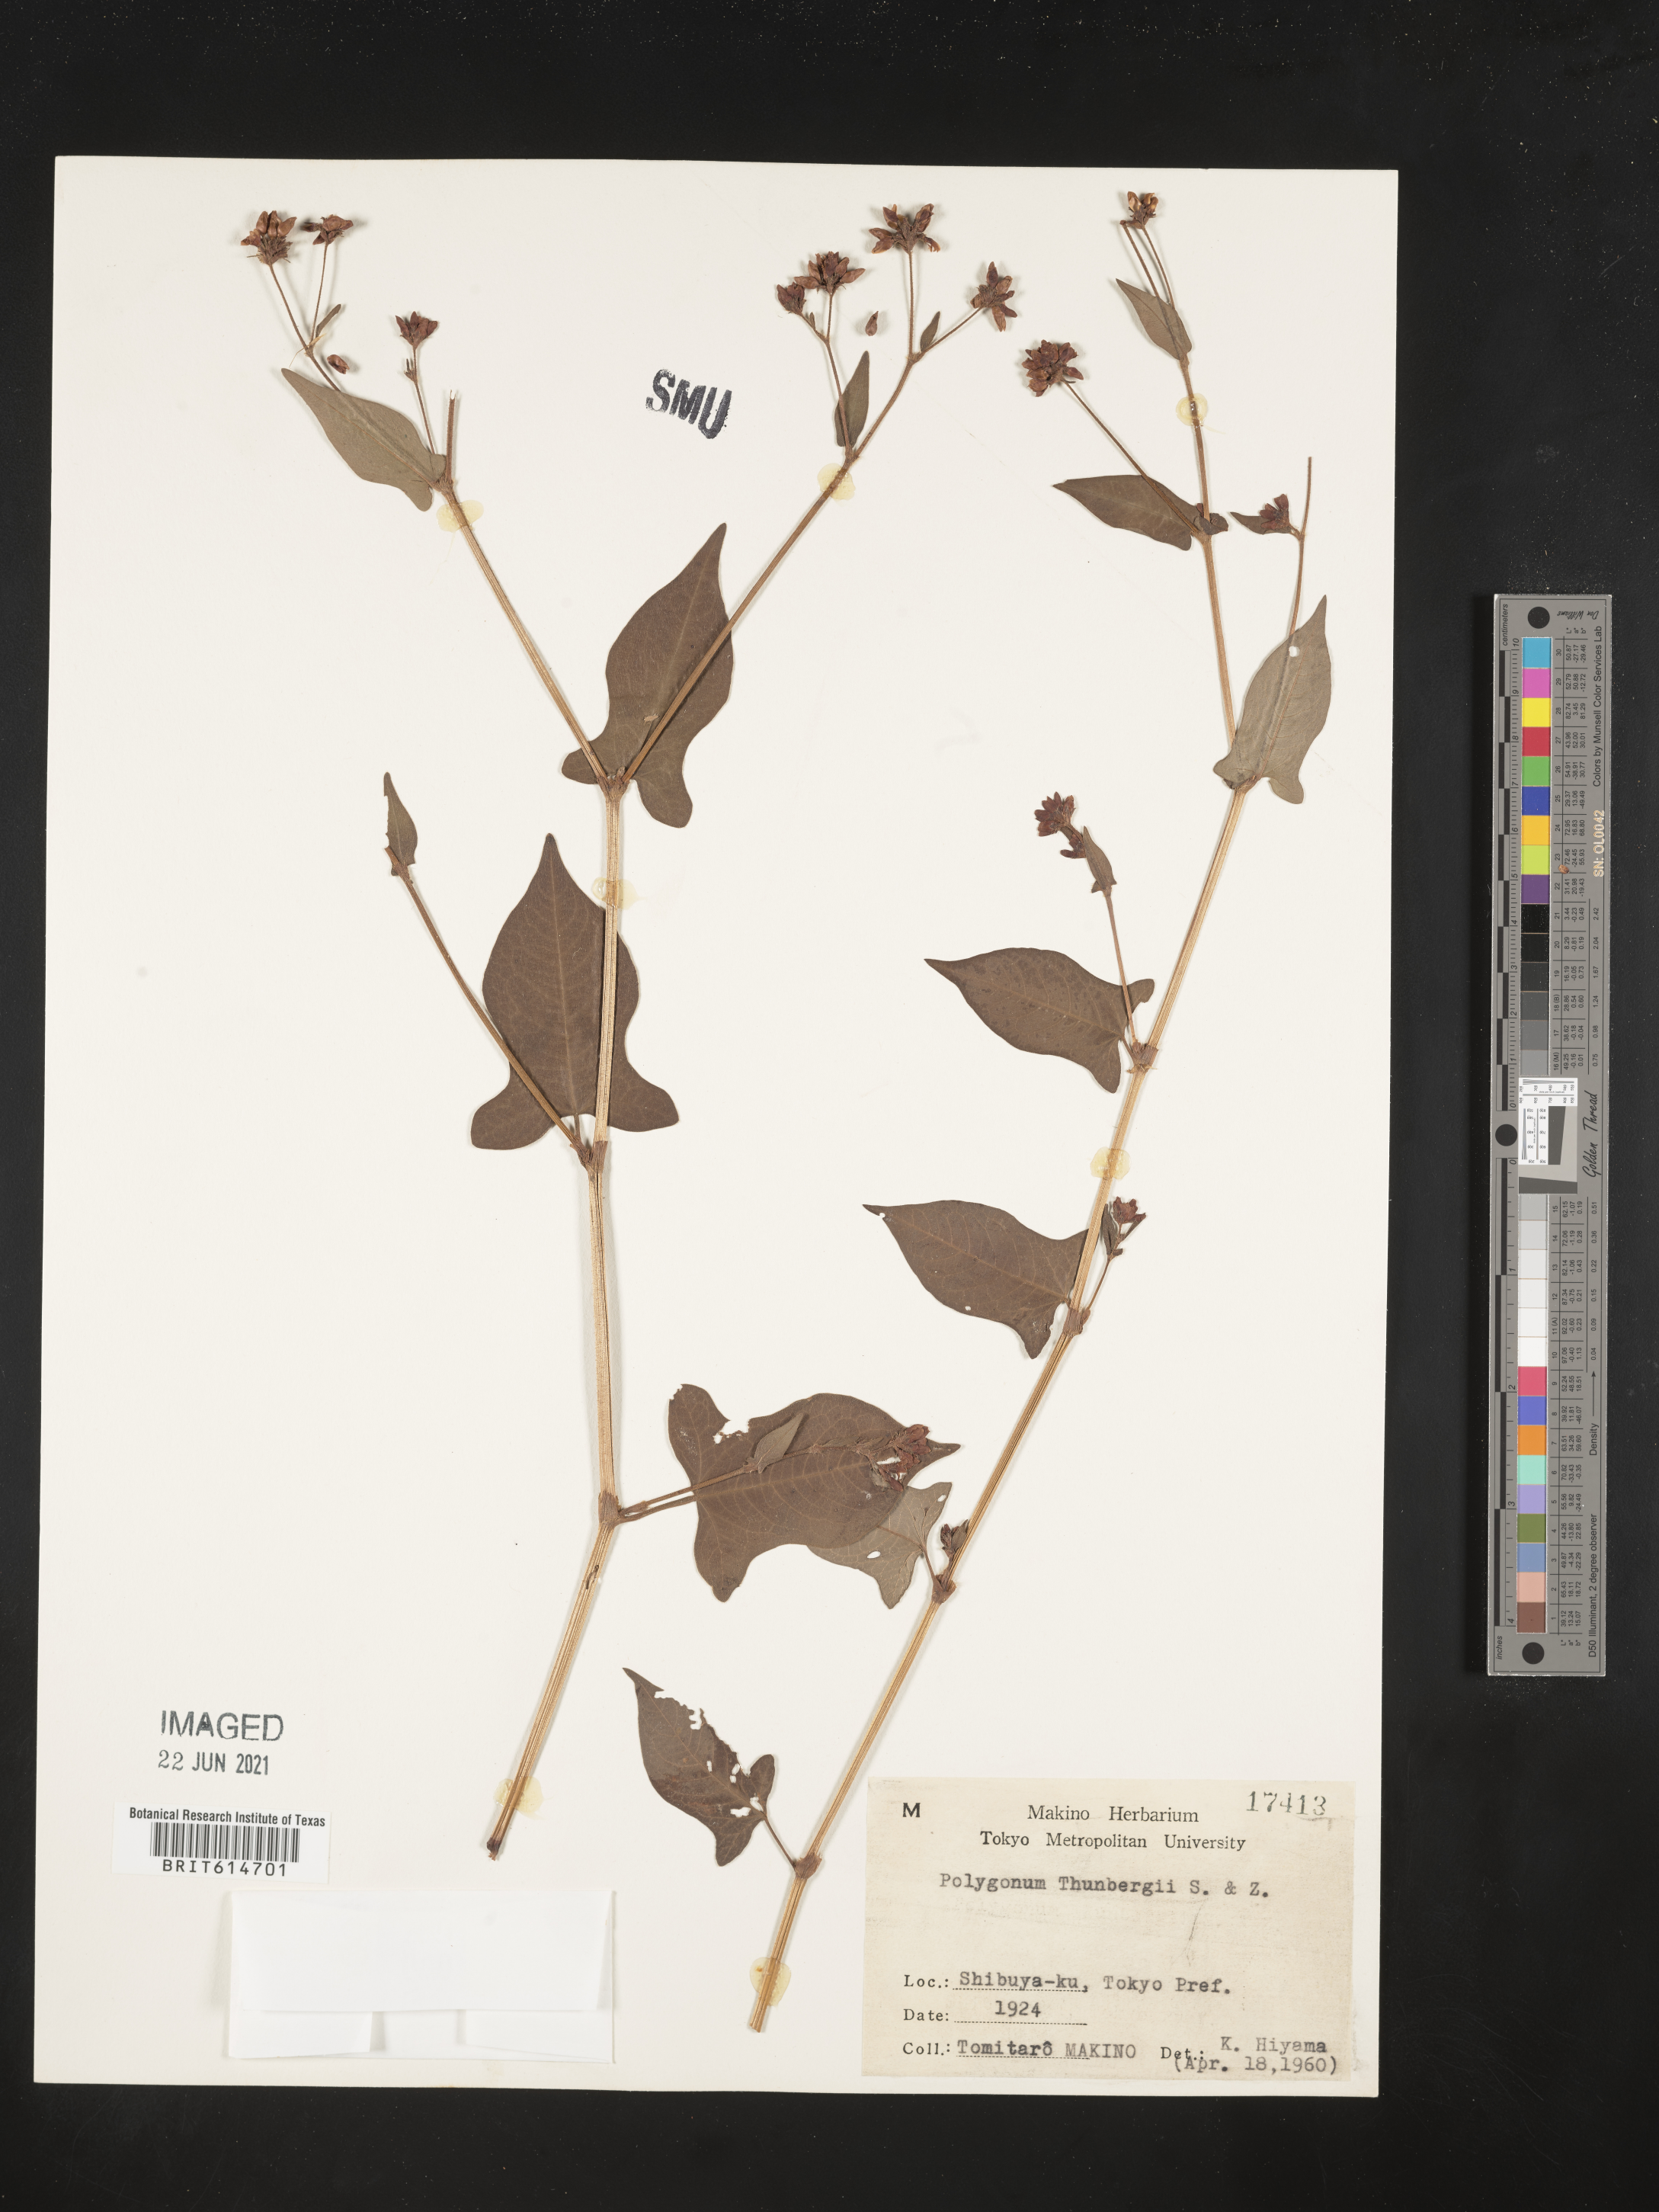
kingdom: Plantae
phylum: Tracheophyta
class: Magnoliopsida
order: Caryophyllales
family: Polygonaceae
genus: Persicaria
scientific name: Persicaria thunbergii
